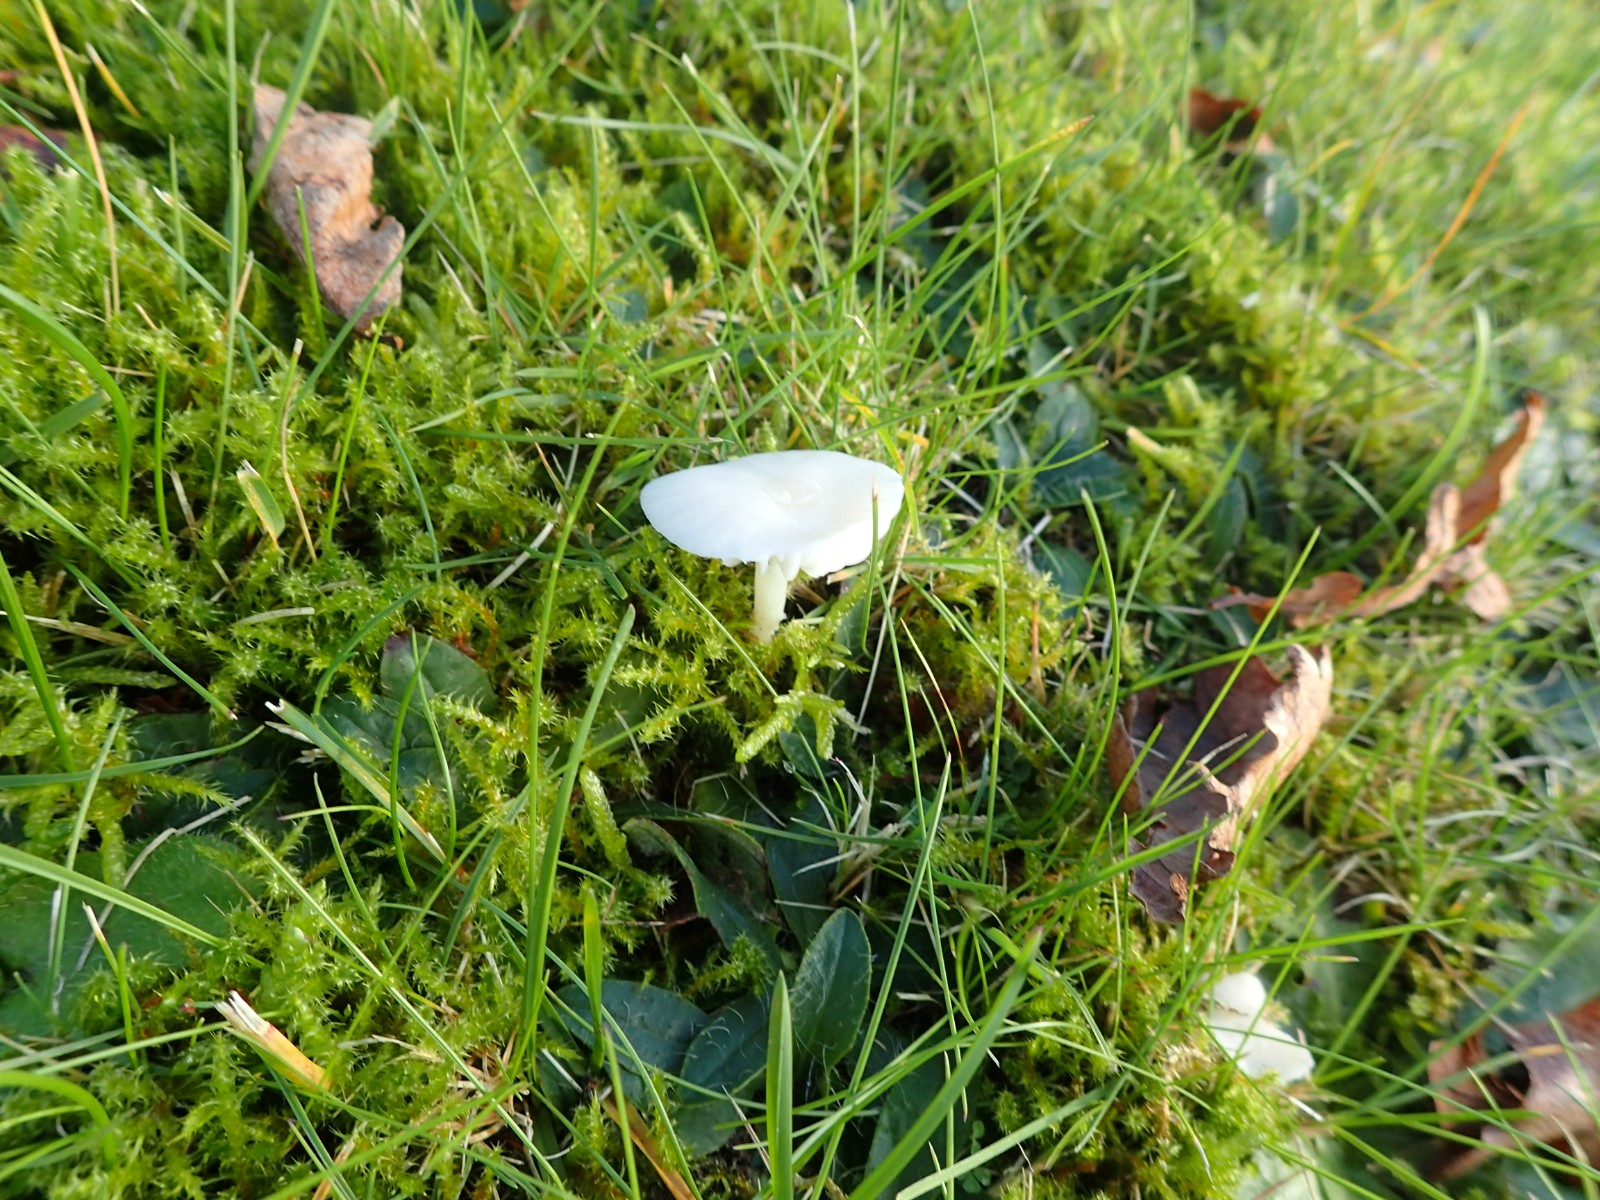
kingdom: Fungi
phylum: Basidiomycota
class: Agaricomycetes
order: Agaricales
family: Hygrophoraceae
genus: Cuphophyllus
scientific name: Cuphophyllus virgineus
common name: snehvid vokshat
